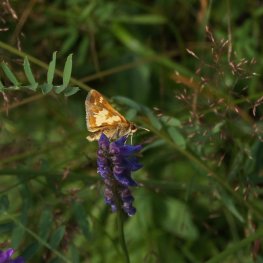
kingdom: Animalia
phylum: Arthropoda
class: Insecta
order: Lepidoptera
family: Hesperiidae
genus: Polites
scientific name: Polites coras
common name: Peck's Skipper
